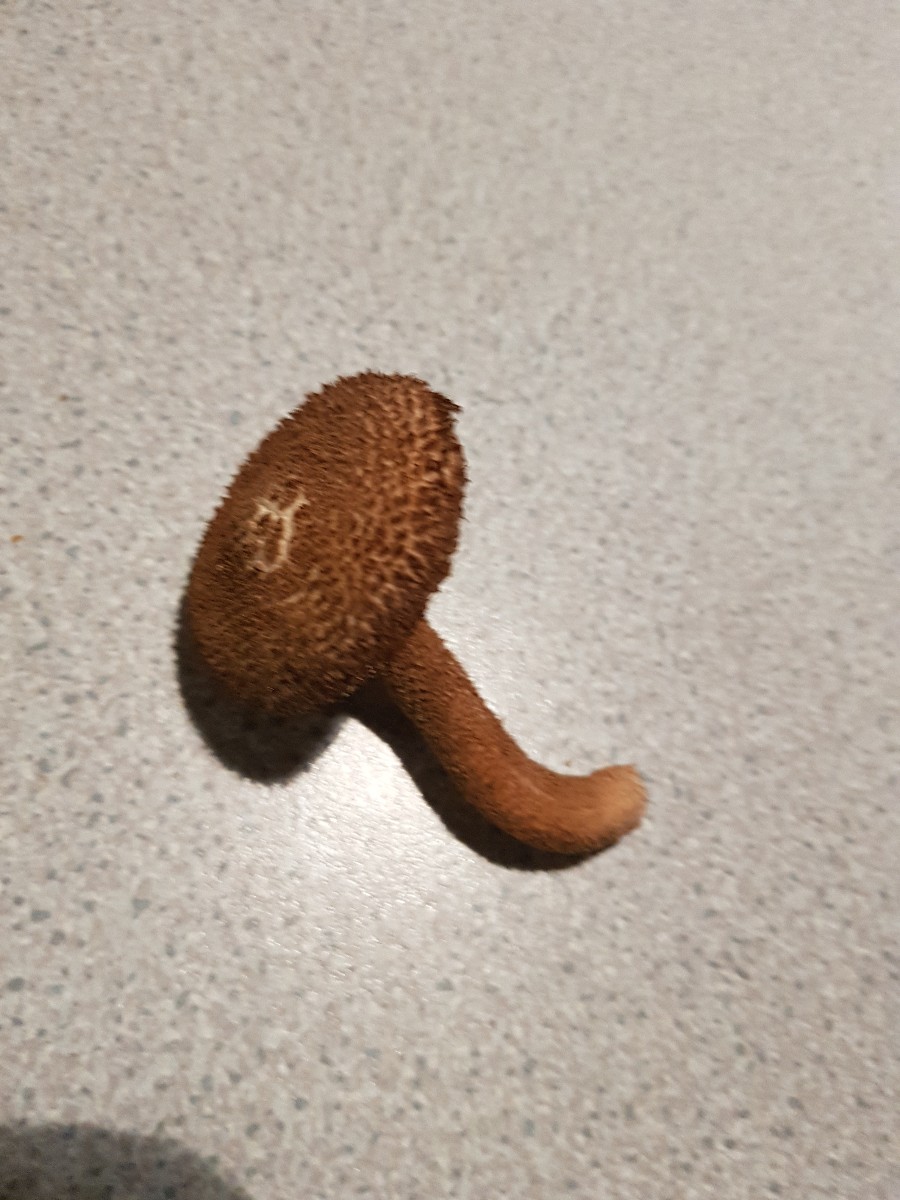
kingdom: Fungi
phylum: Basidiomycota
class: Agaricomycetes
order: Agaricales
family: Inocybaceae
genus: Inocybe
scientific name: Inocybe
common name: trævlhat
